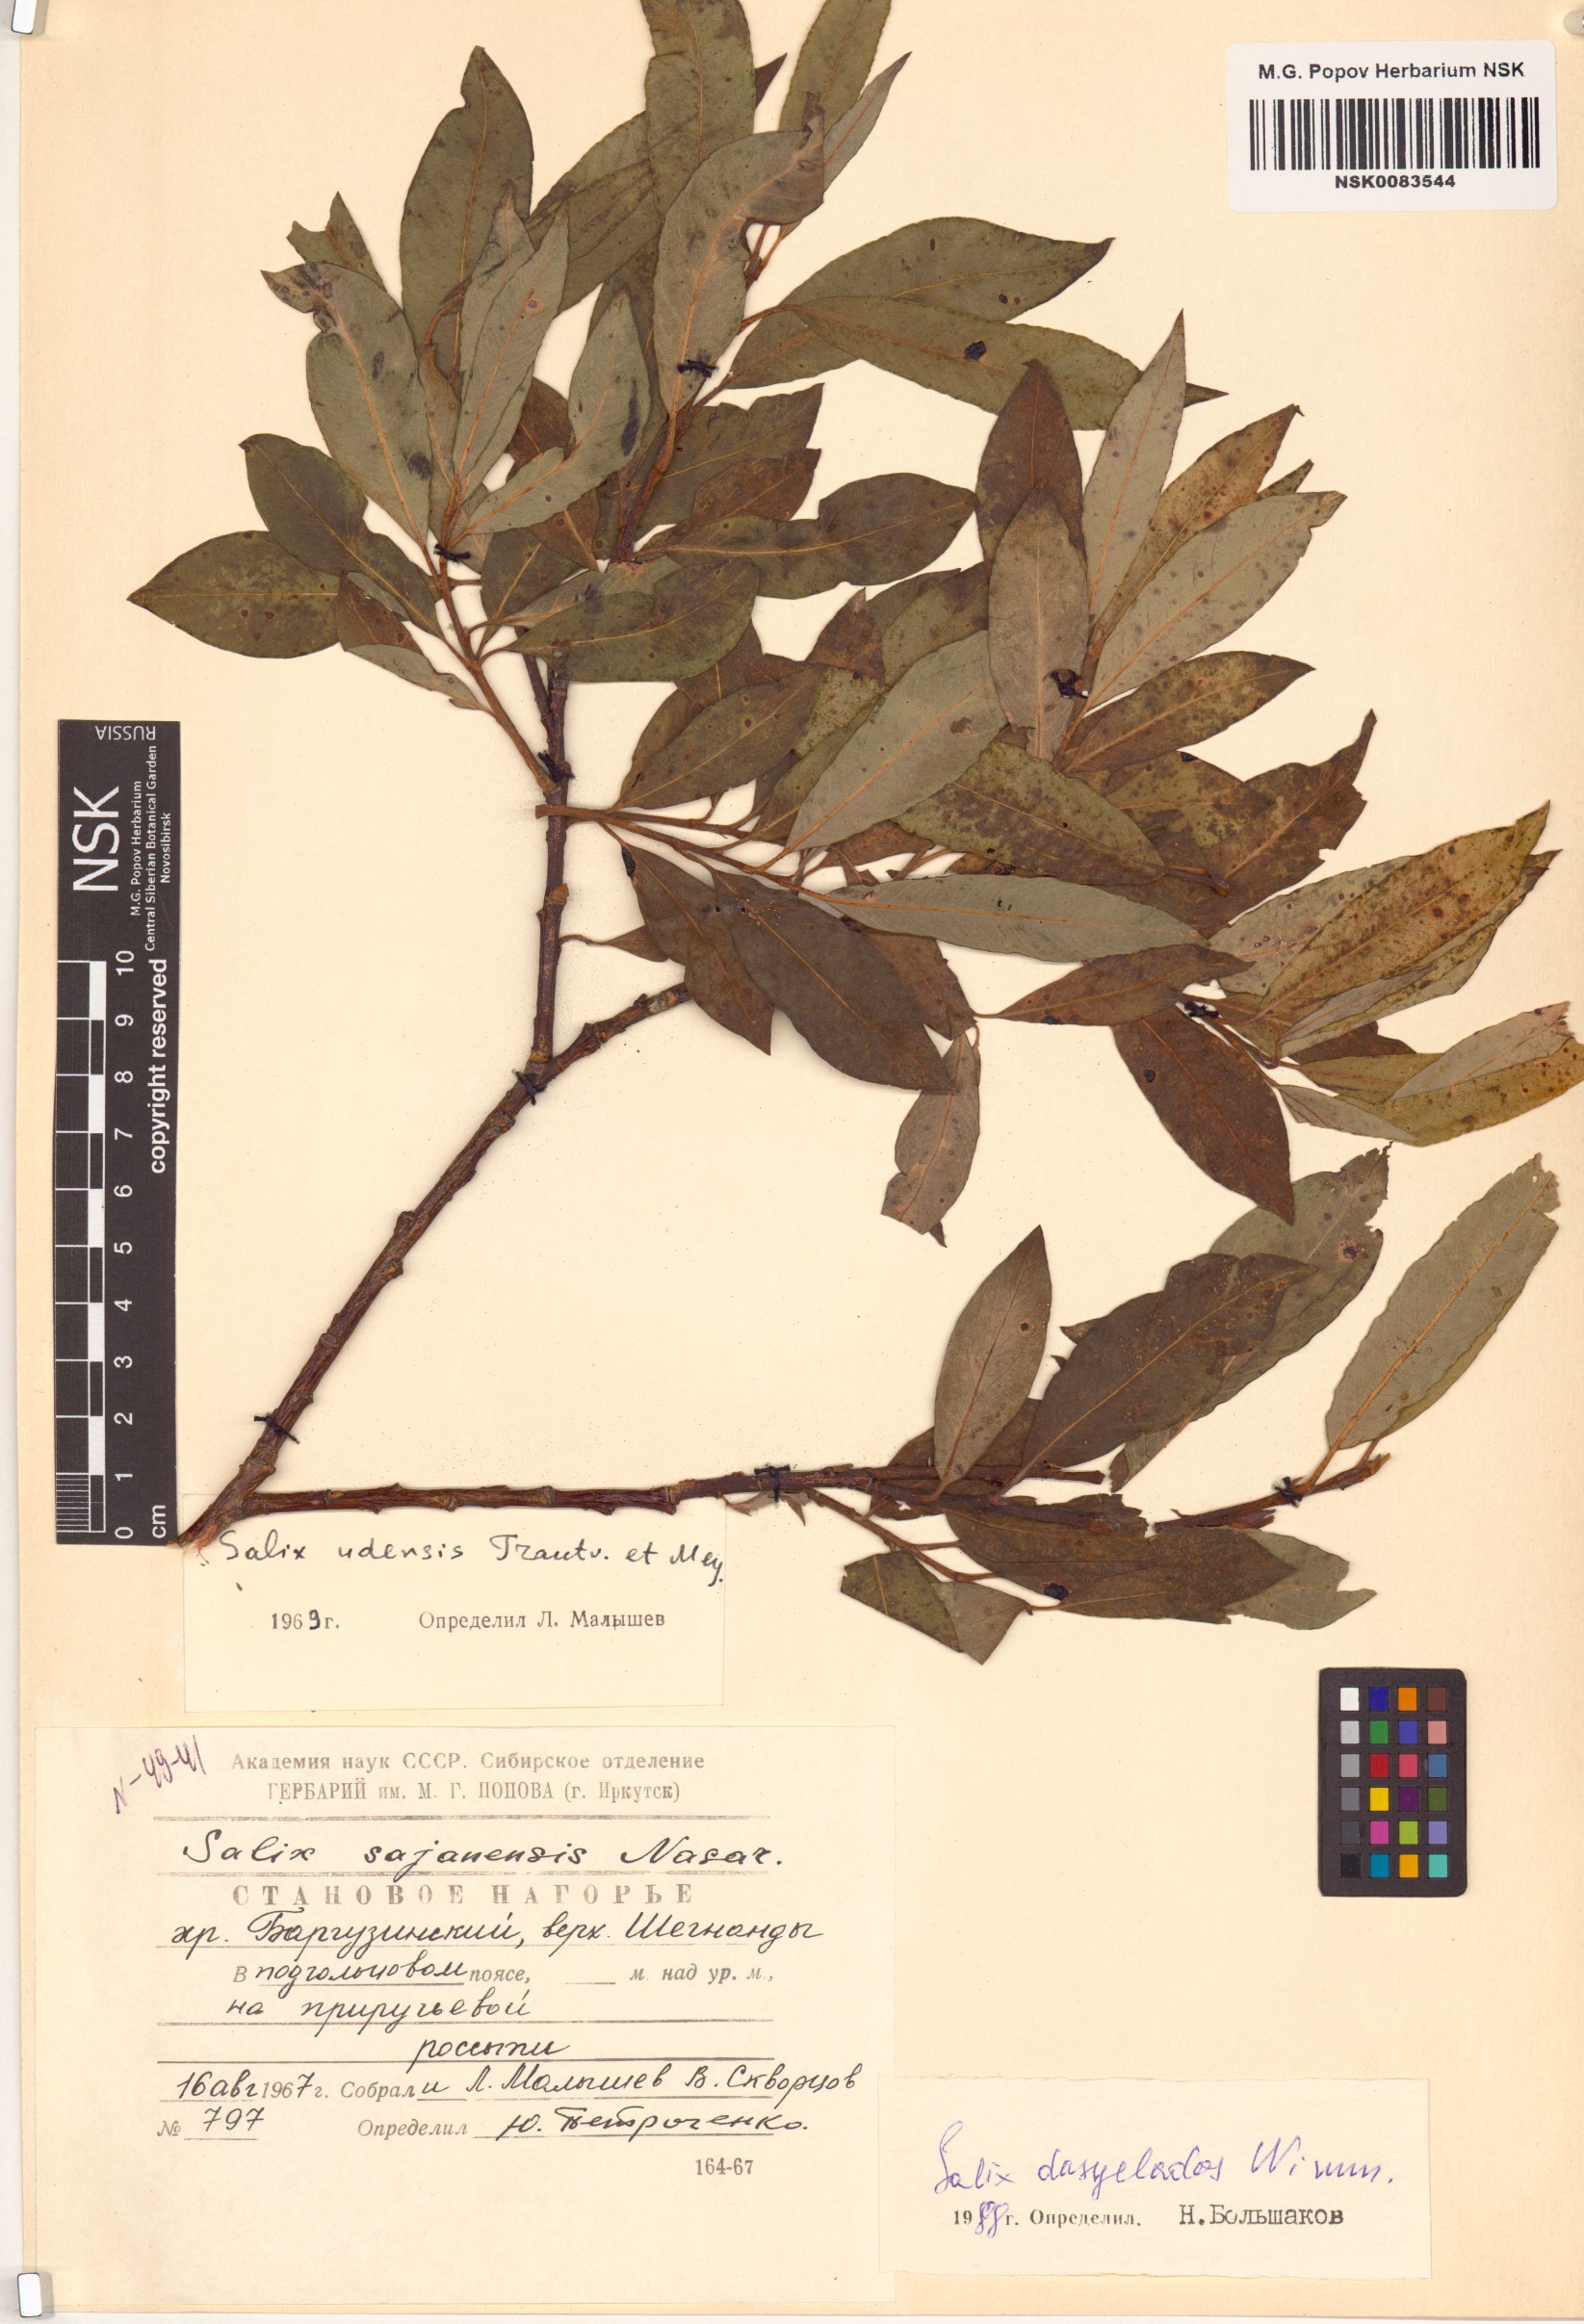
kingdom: Plantae
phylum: Tracheophyta
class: Magnoliopsida
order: Malpighiales
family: Salicaceae
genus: Salix
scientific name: Salix gmelinii
